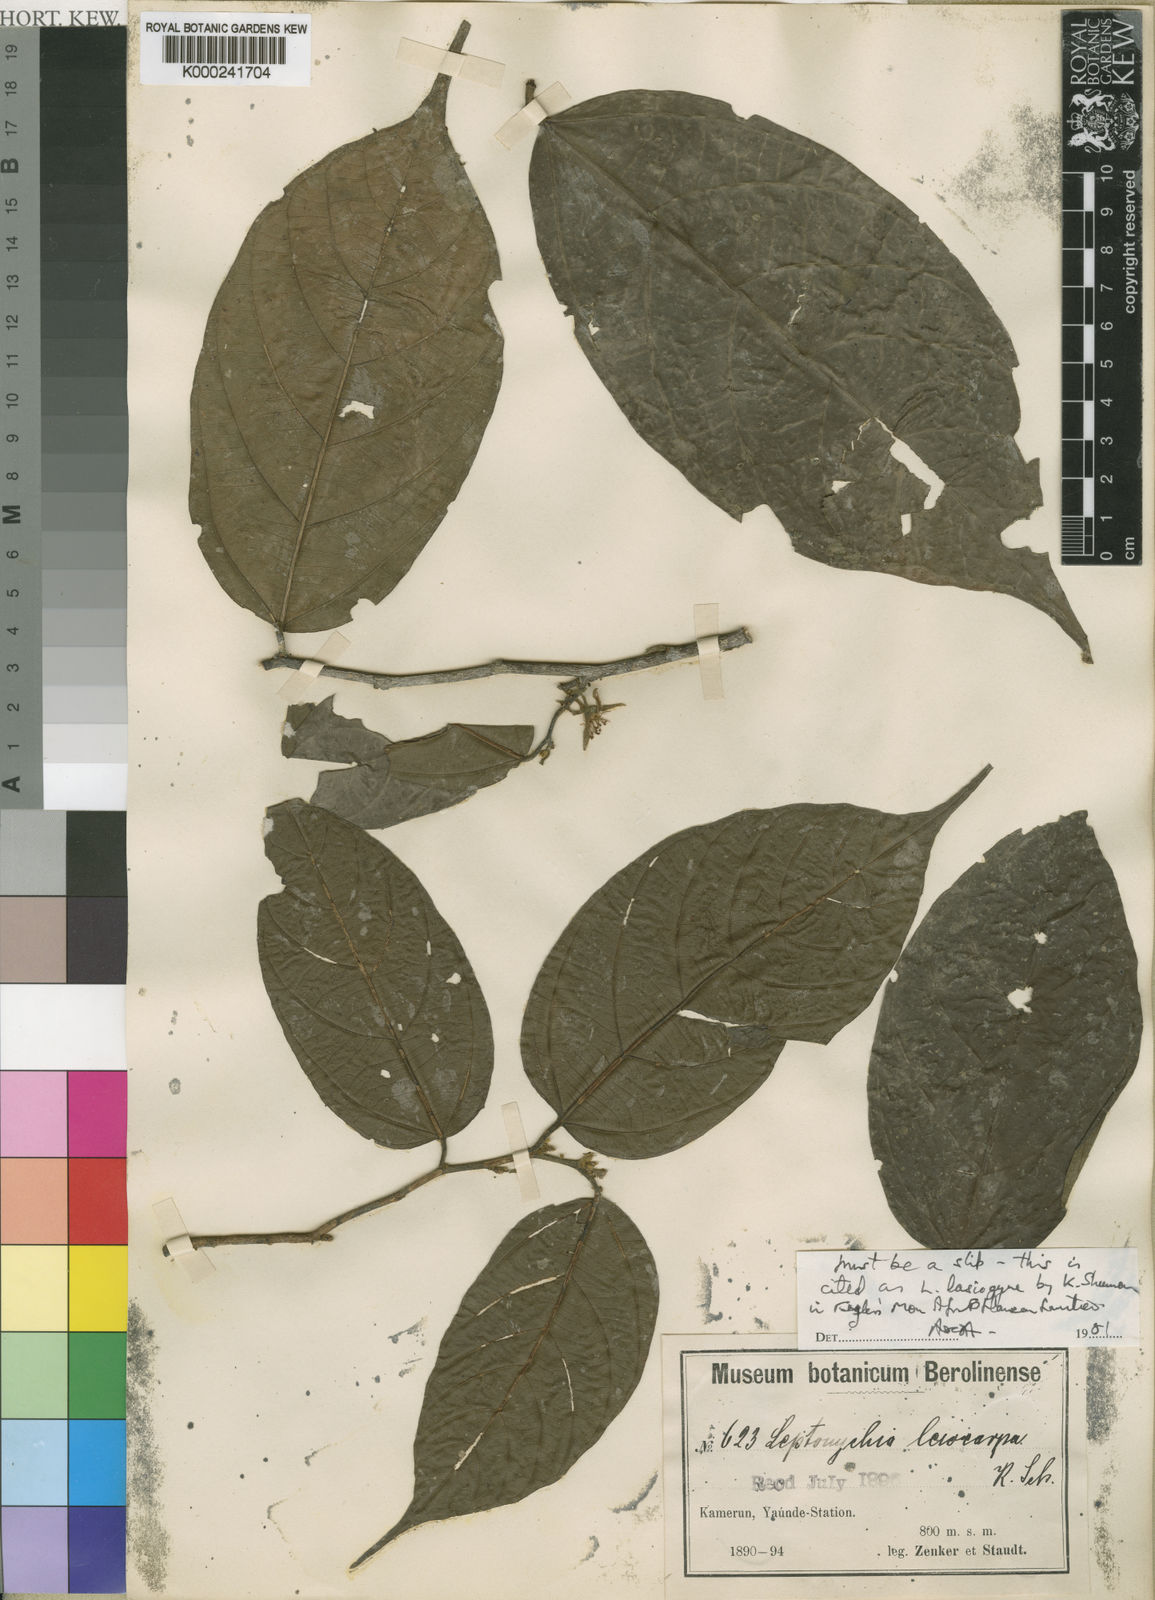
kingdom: Plantae
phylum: Tracheophyta
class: Magnoliopsida
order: Malvales
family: Malvaceae
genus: Leptonychia
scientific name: Leptonychia lasiogyne
